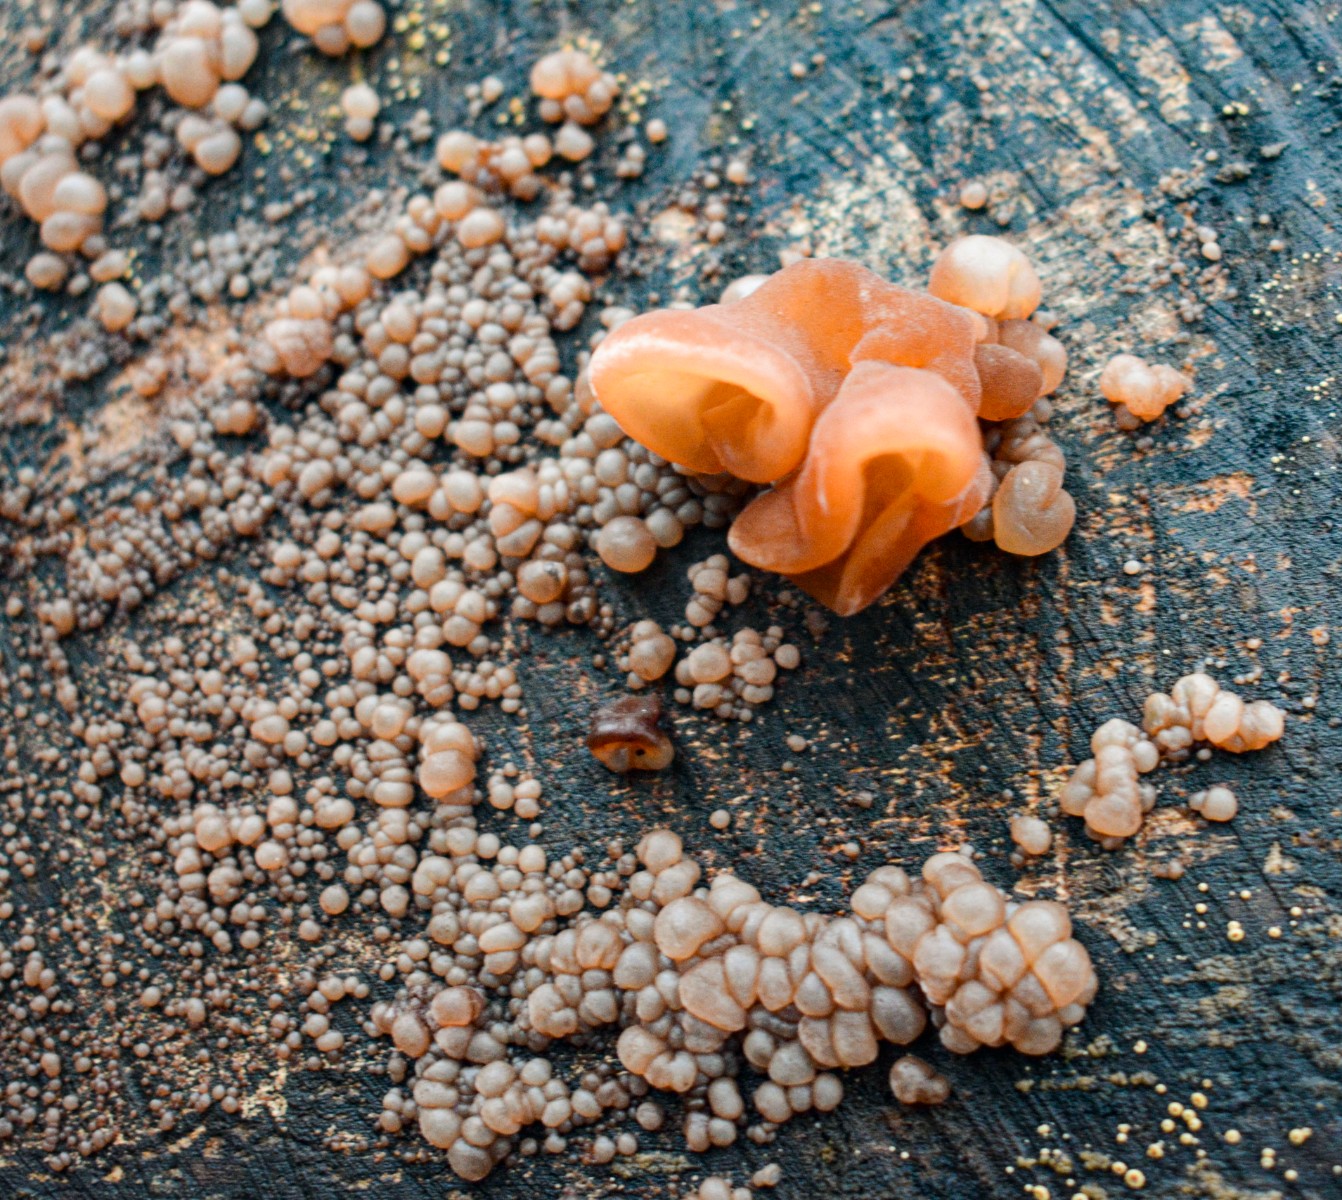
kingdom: Fungi
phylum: Basidiomycota
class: Agaricomycetes
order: Auriculariales
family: Auriculariaceae
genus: Auricularia
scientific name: Auricularia auricula-judae
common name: almindelig judasøre
